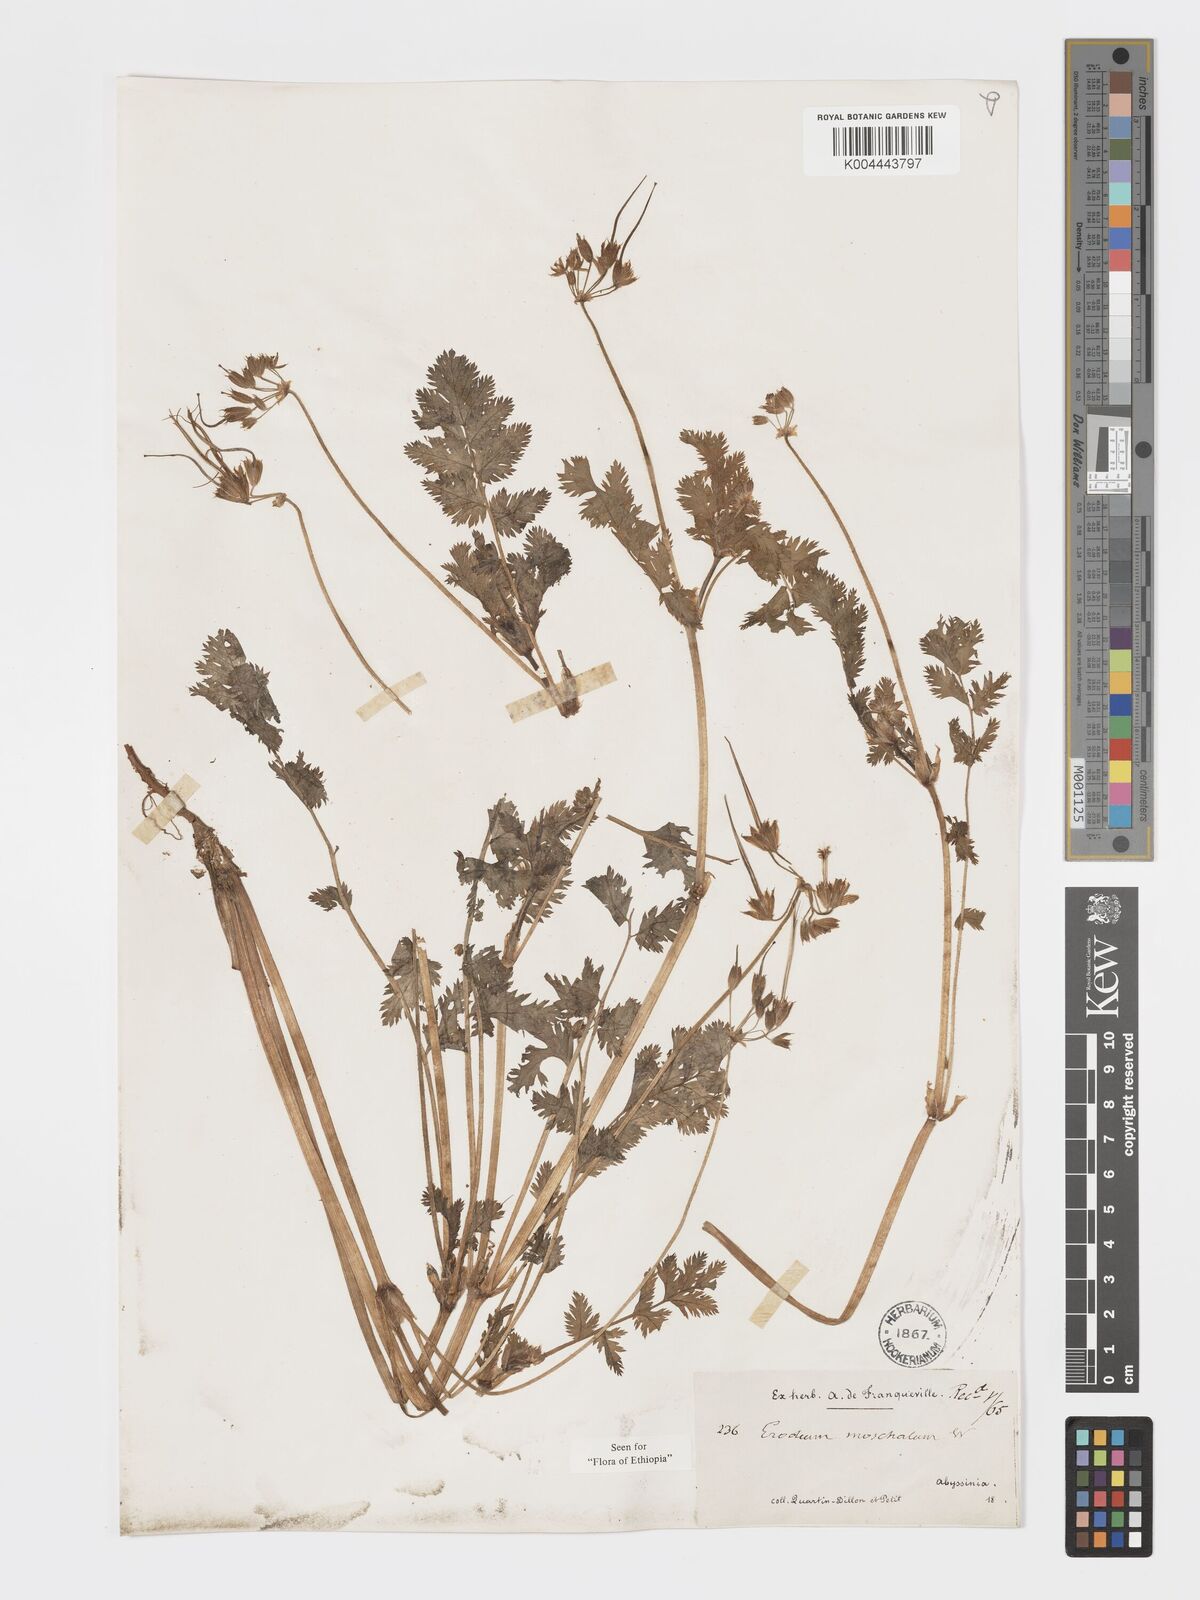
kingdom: Plantae
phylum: Tracheophyta
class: Magnoliopsida
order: Geraniales
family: Geraniaceae
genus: Erodium
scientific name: Erodium moschatum
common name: Musk stork's-bill
